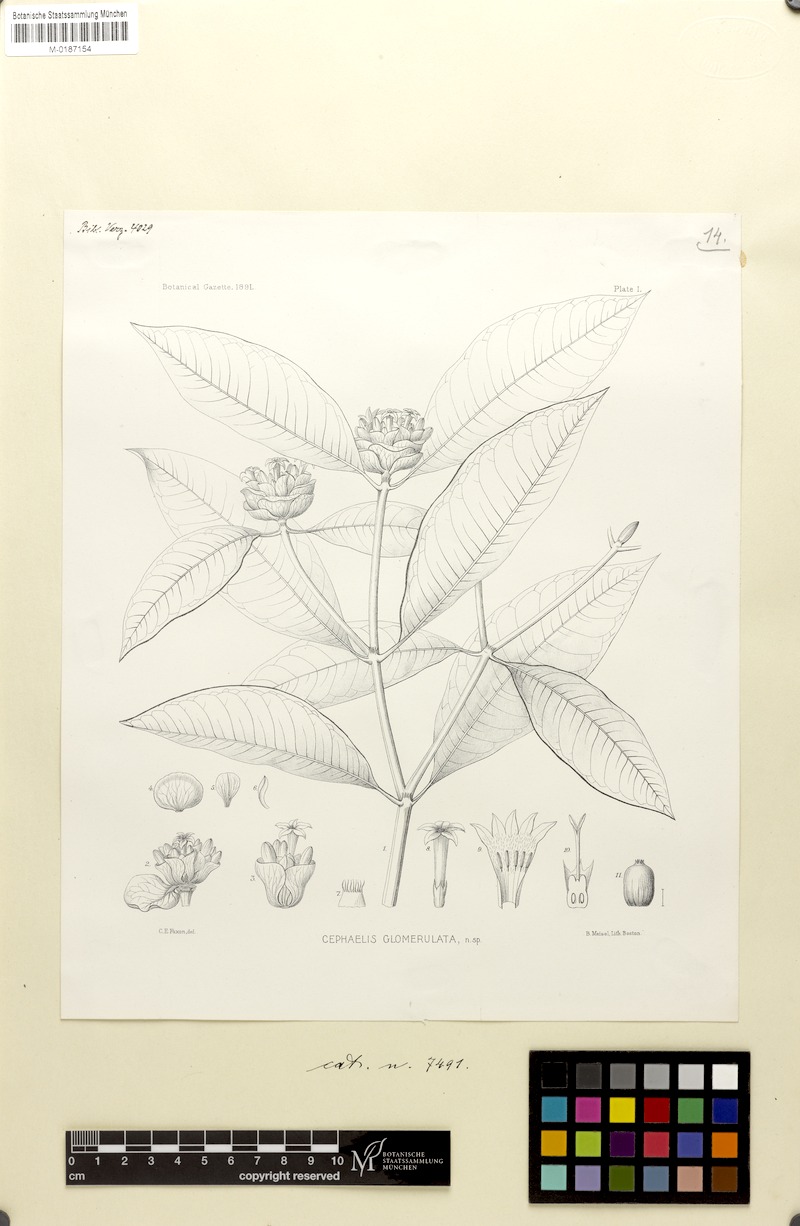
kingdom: Plantae
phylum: Tracheophyta
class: Magnoliopsida
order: Gentianales
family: Rubiaceae
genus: Palicourea
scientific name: Palicourea glomerulata
